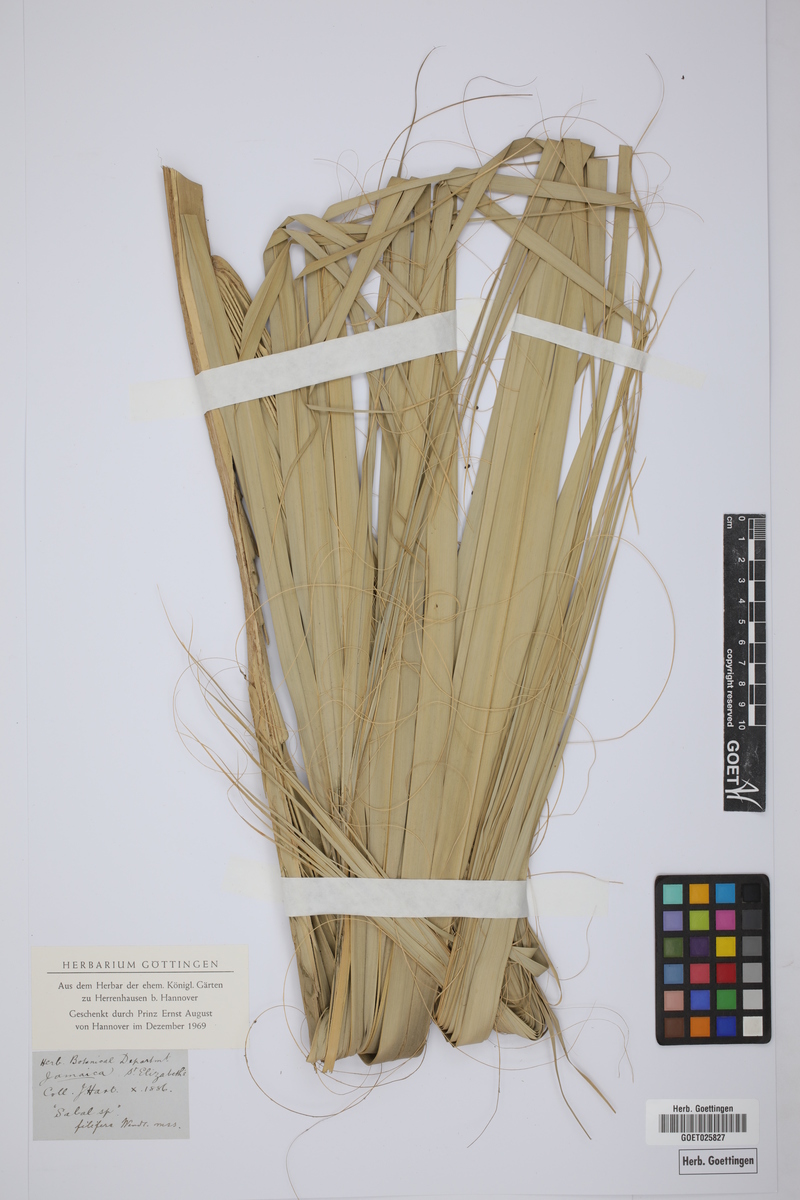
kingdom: Plantae
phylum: Tracheophyta
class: Liliopsida
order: Arecales
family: Arecaceae
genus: Sabal
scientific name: Sabal filifera
